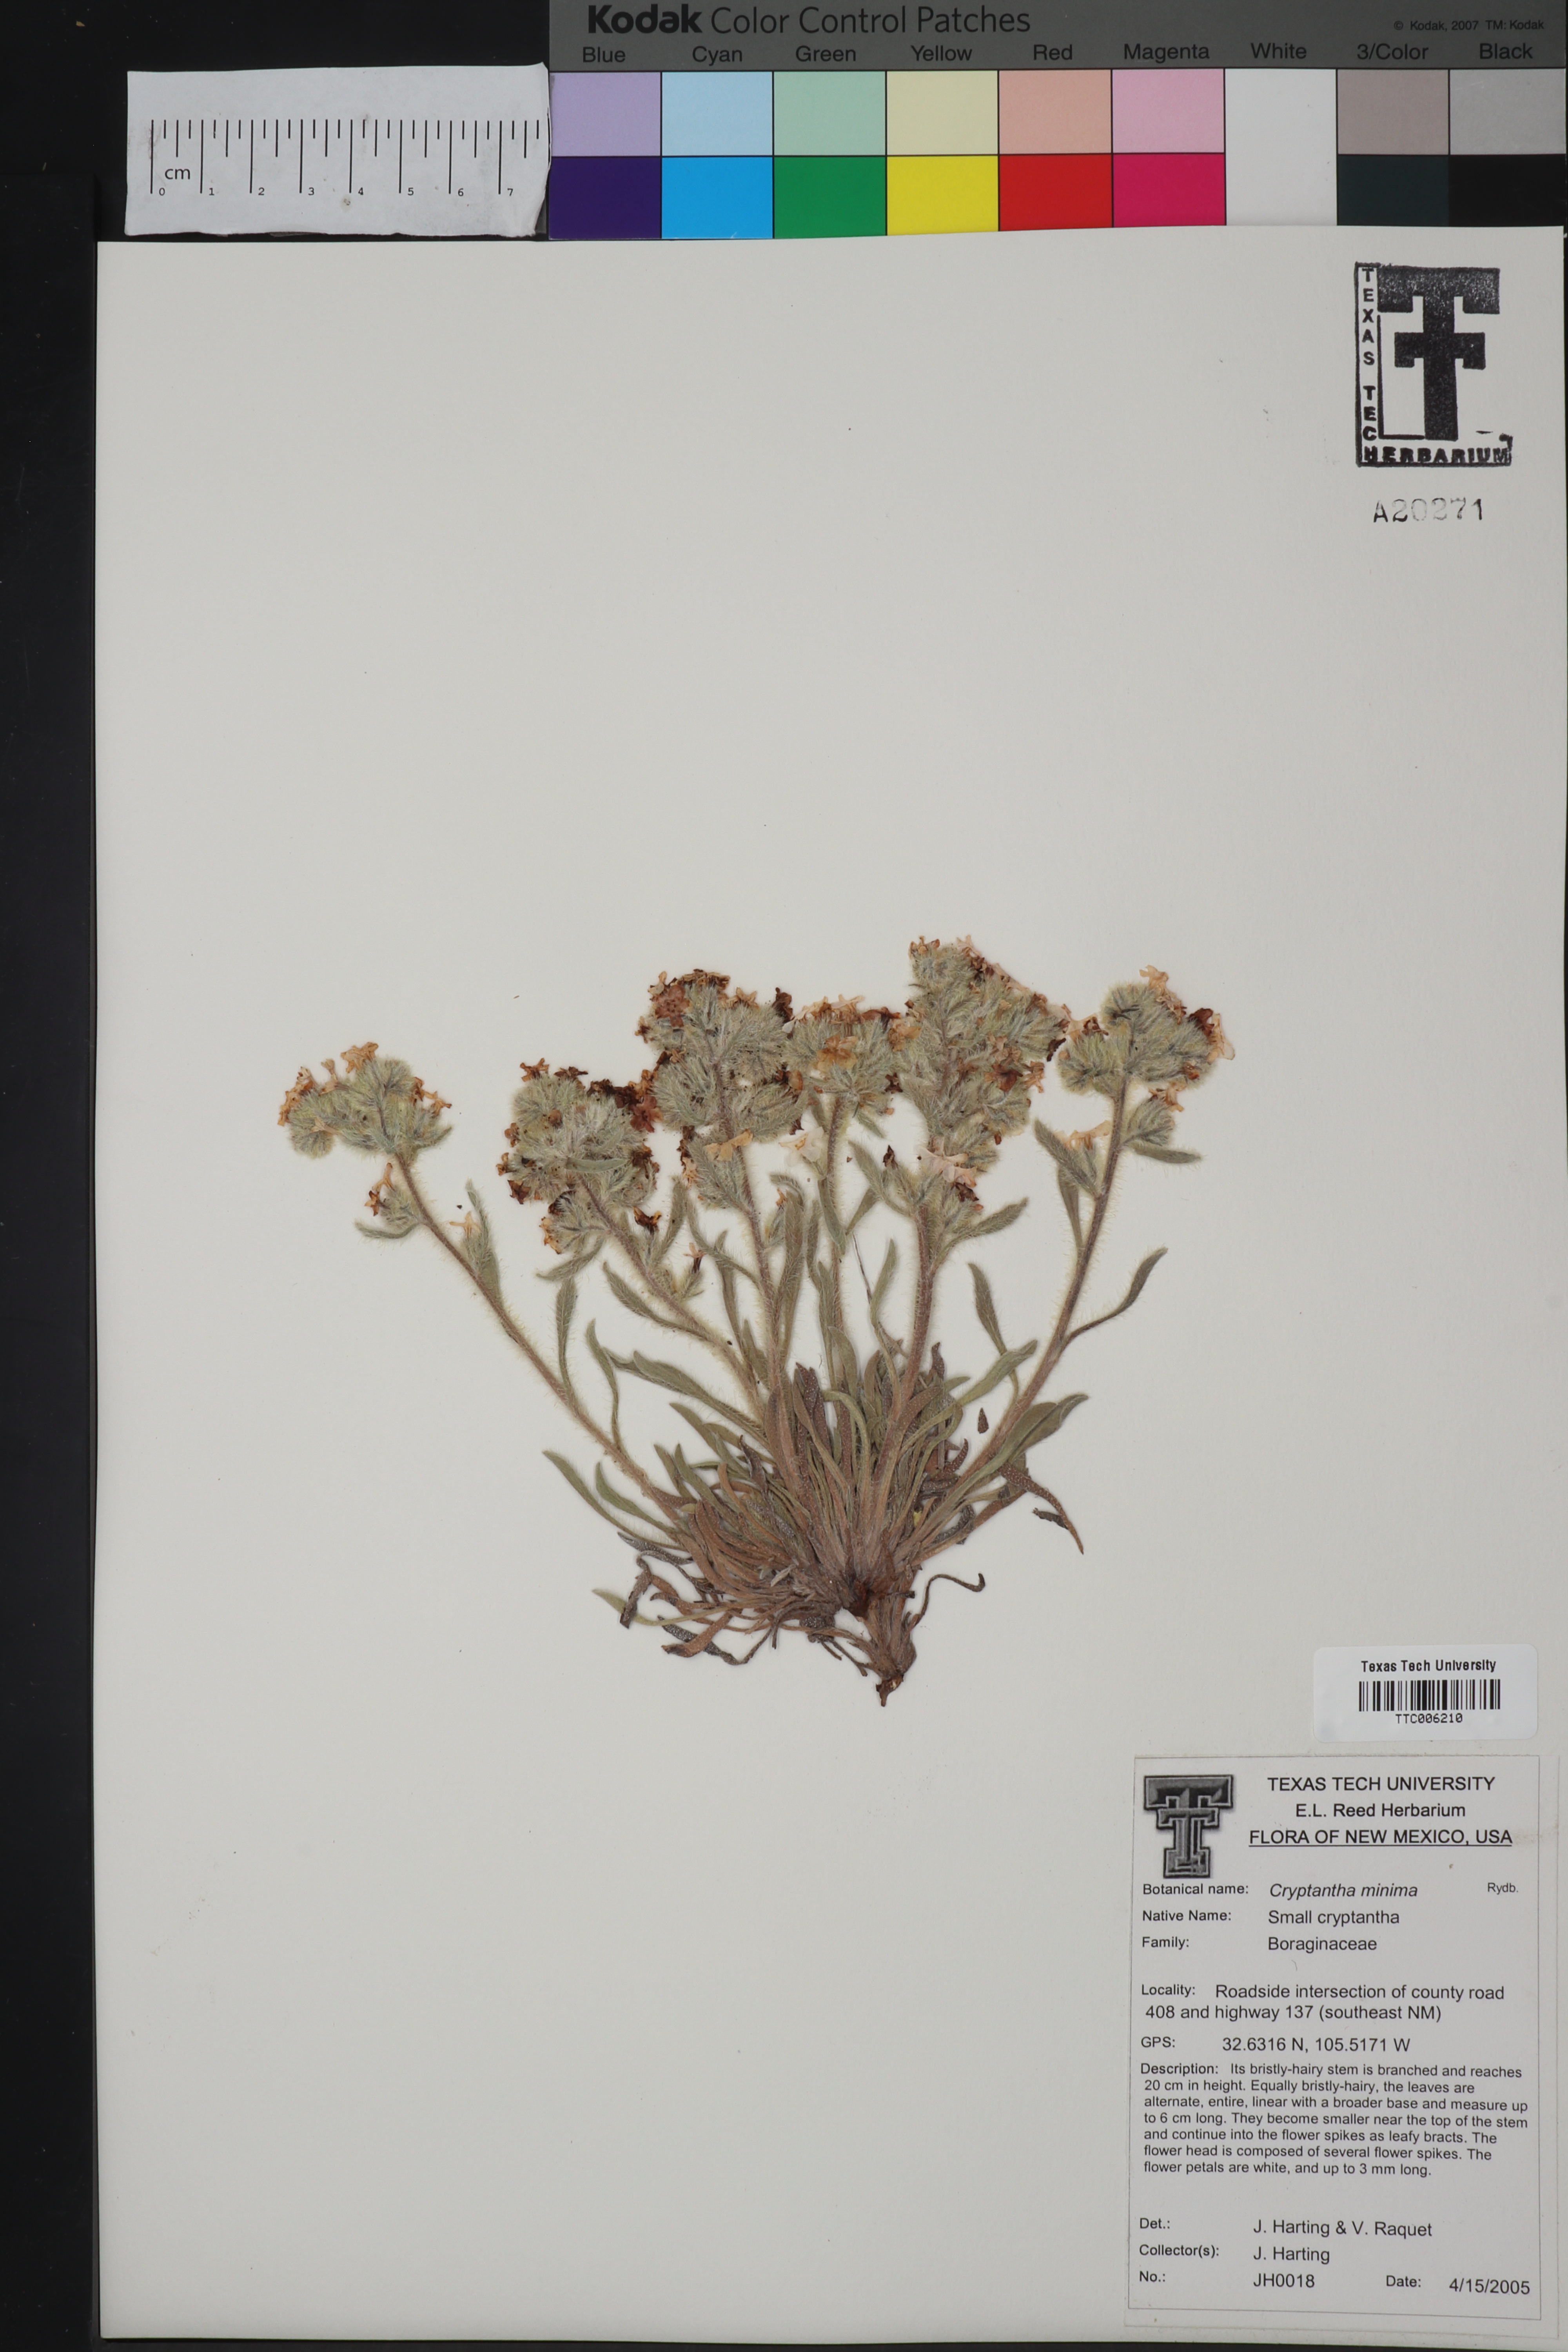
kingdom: Plantae
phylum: Tracheophyta
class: Magnoliopsida
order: Boraginales
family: Boraginaceae
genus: Cryptantha
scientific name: Cryptantha minima
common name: Little cat's-eye
